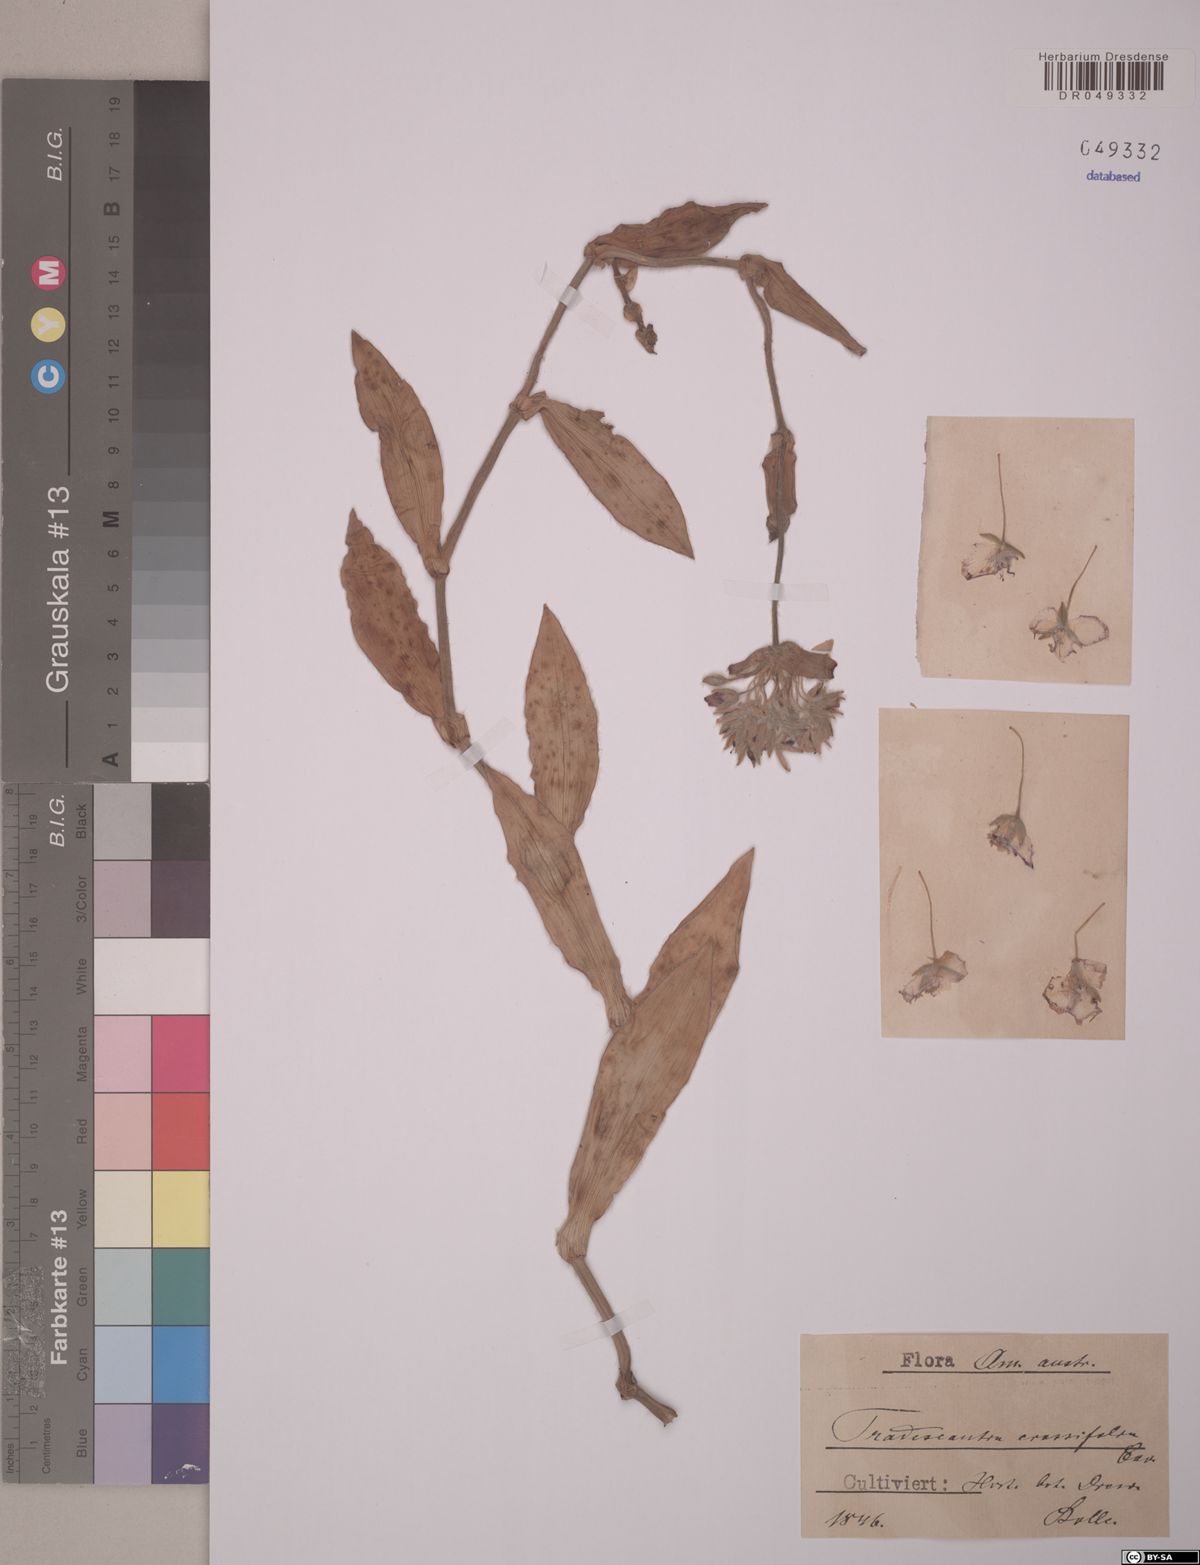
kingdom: Plantae
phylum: Tracheophyta
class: Liliopsida
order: Commelinales
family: Commelinaceae
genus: Tradescantia
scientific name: Tradescantia crassifolia
